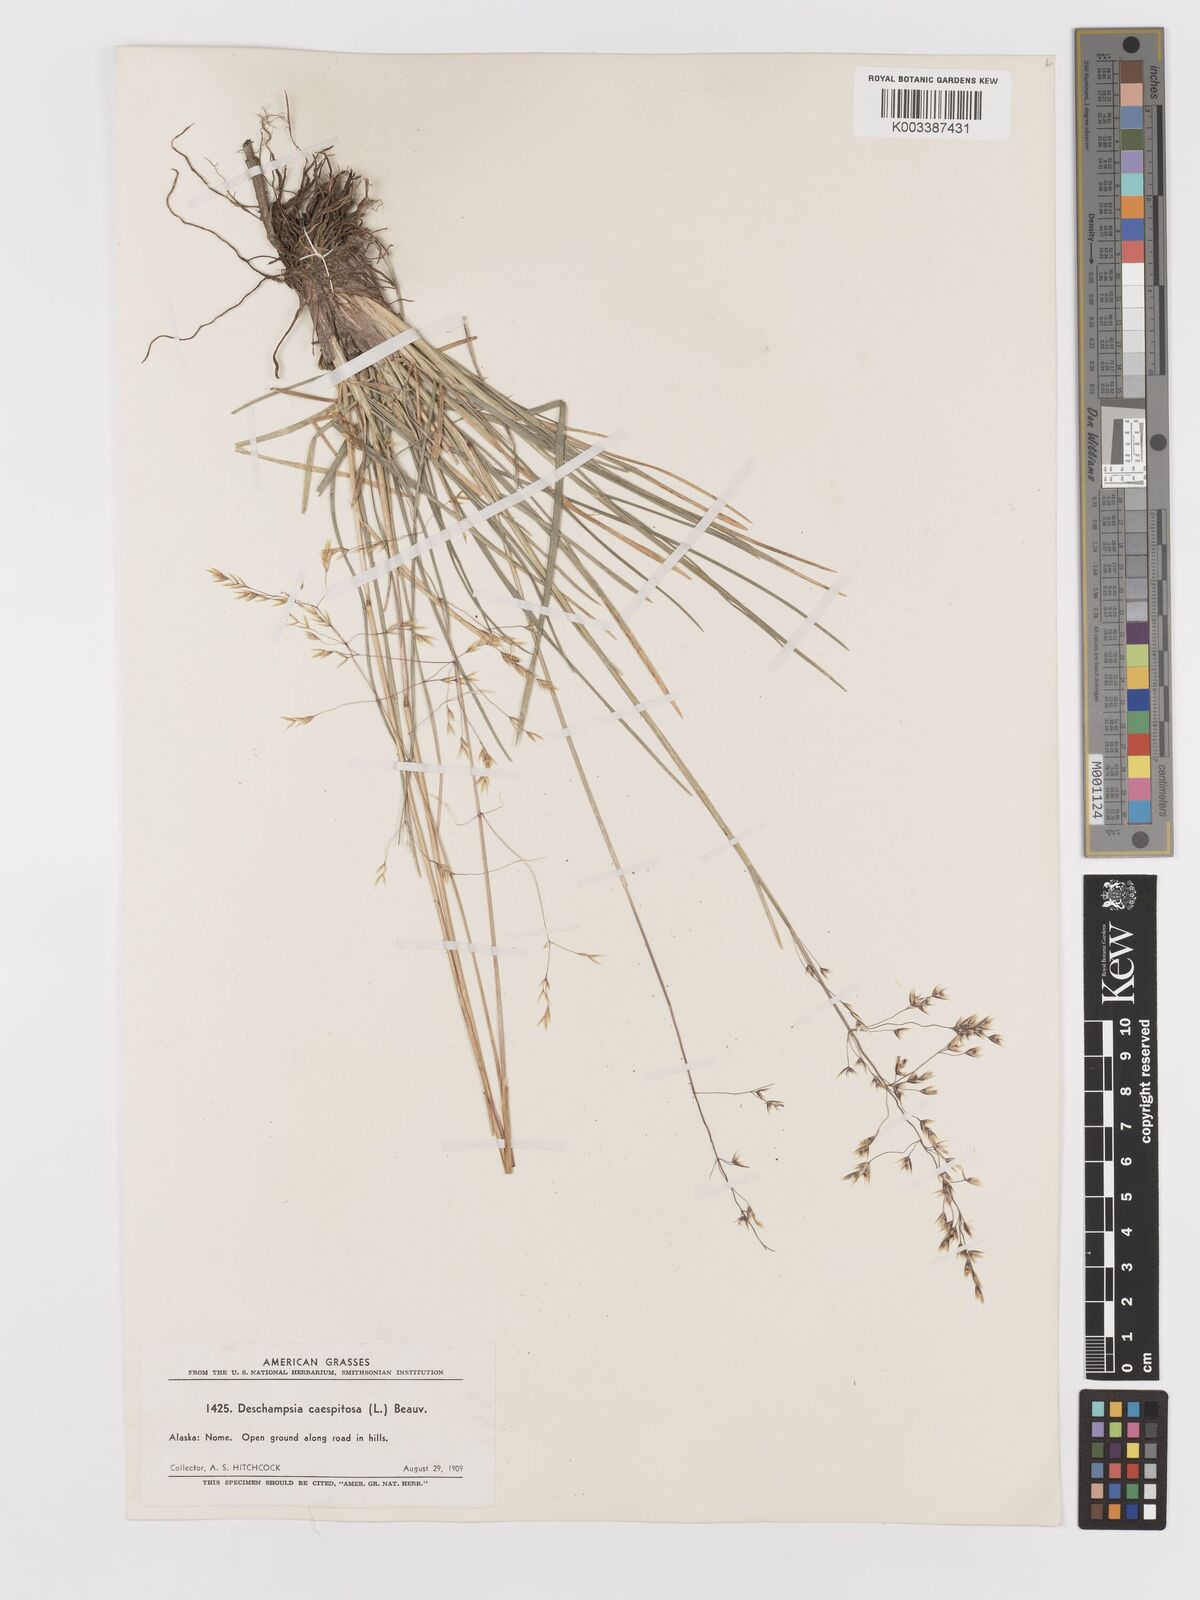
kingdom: Plantae
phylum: Tracheophyta
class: Liliopsida
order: Poales
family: Poaceae
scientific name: Poaceae
